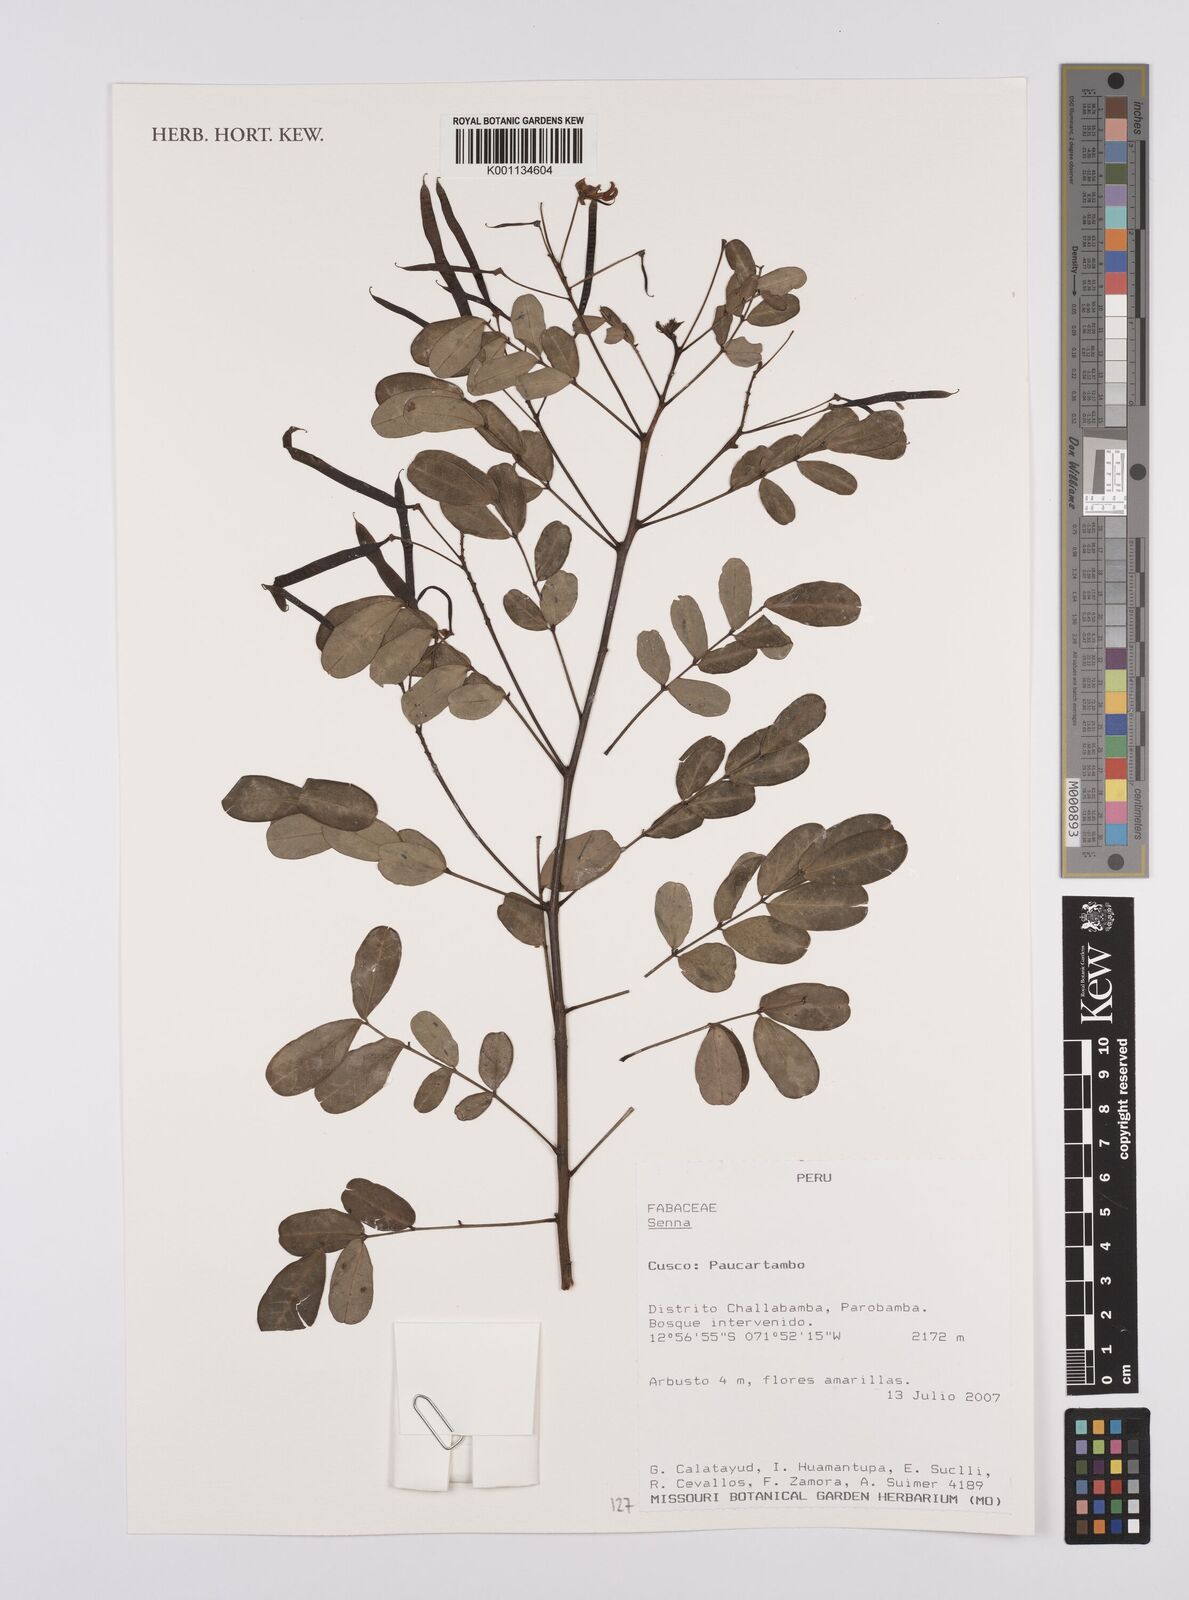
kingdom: Plantae
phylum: Tracheophyta
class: Magnoliopsida
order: Fabales
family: Fabaceae
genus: Senna
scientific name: Senna
